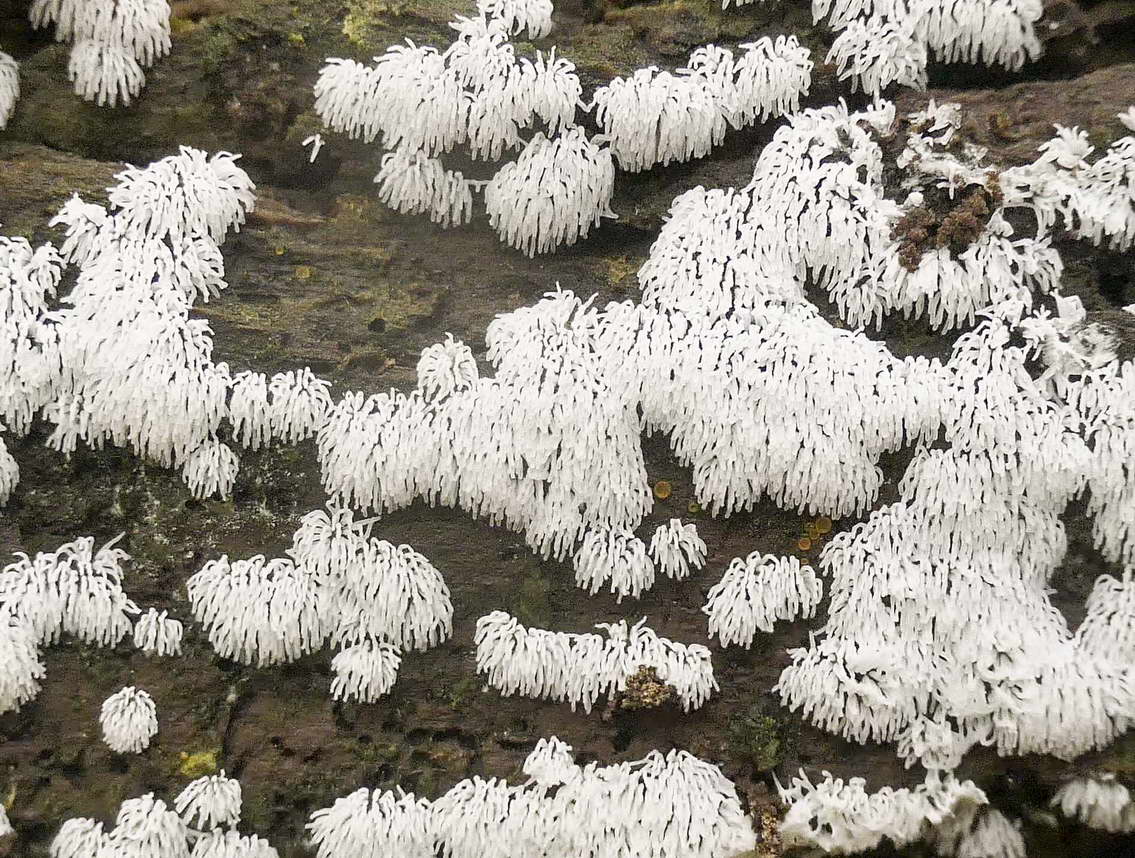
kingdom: Protozoa
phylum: Mycetozoa
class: Protosteliomycetes
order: Ceratiomyxales
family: Ceratiomyxaceae
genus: Ceratiomyxa
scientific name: Ceratiomyxa fruticulosa
